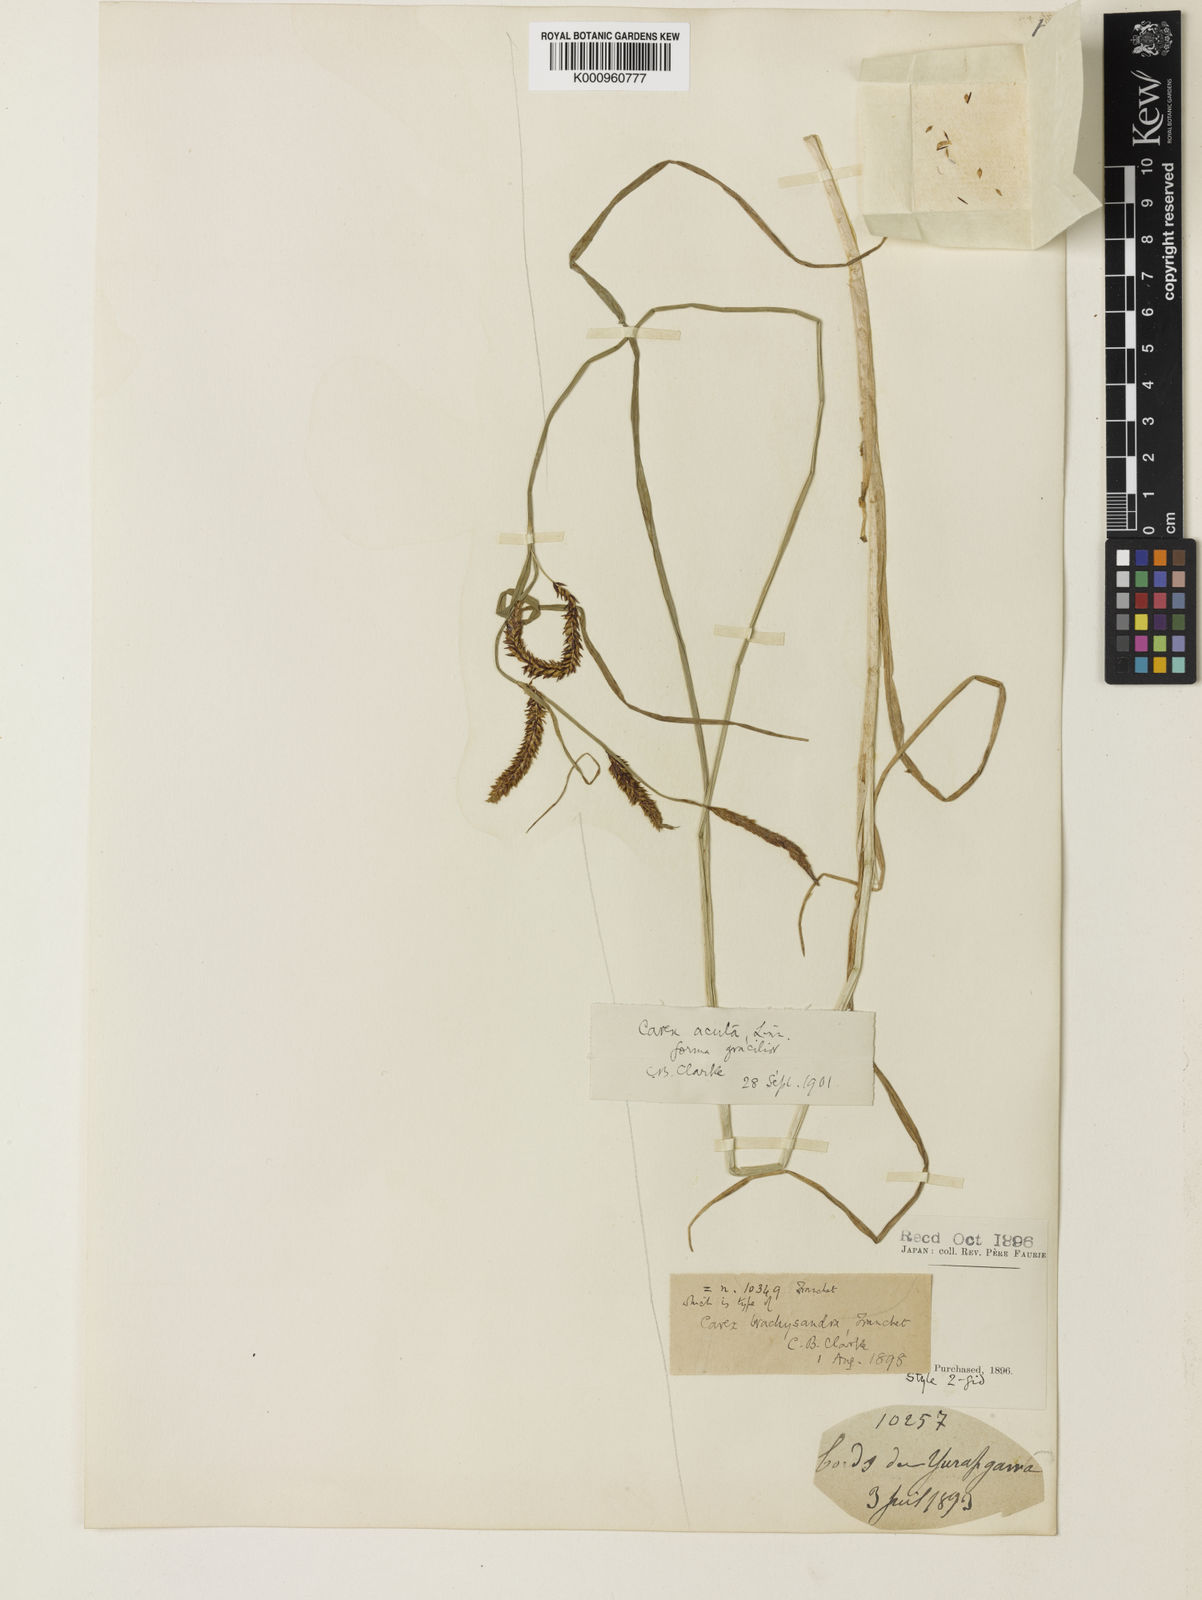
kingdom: Plantae
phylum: Tracheophyta
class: Liliopsida
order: Poales
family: Cyperaceae
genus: Carex
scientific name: Carex gaudichaudiana
